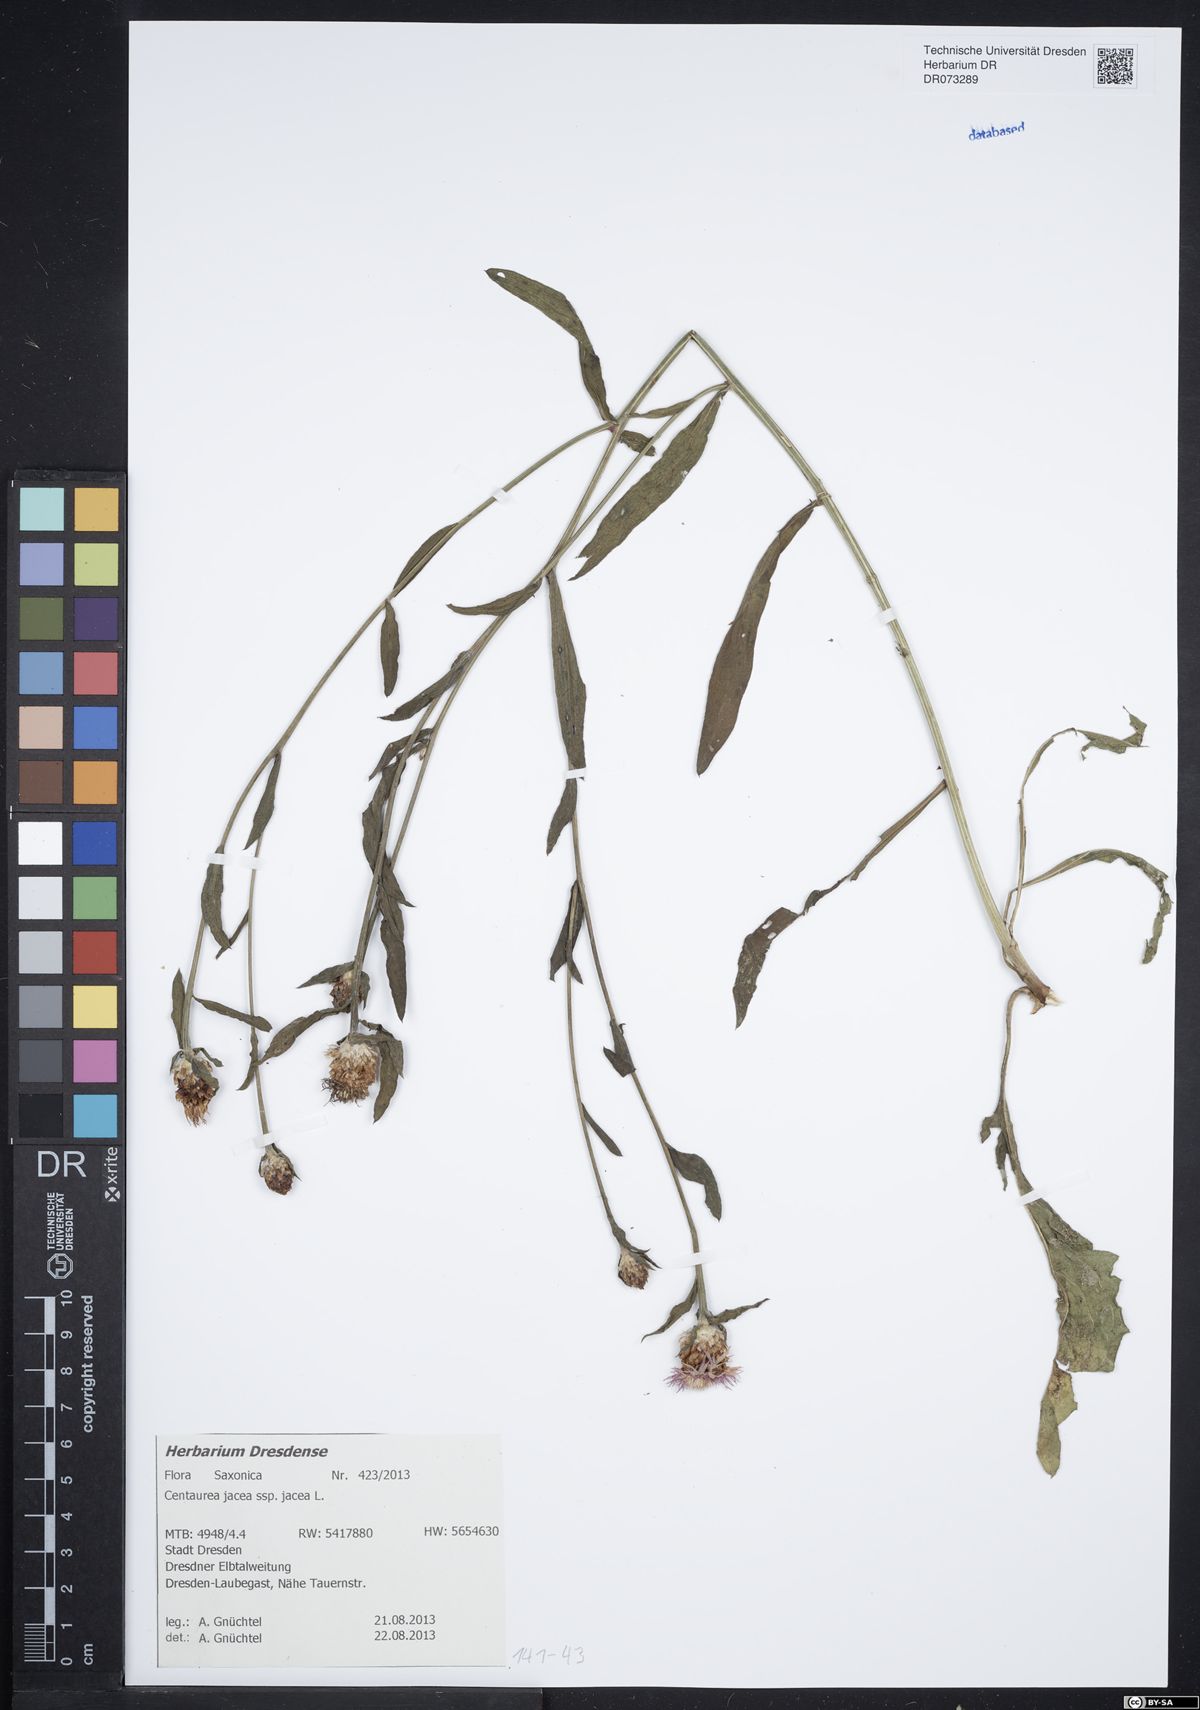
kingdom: Plantae
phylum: Tracheophyta
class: Magnoliopsida
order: Asterales
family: Asteraceae
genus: Centaurea
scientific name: Centaurea jacea
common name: Brown knapweed
